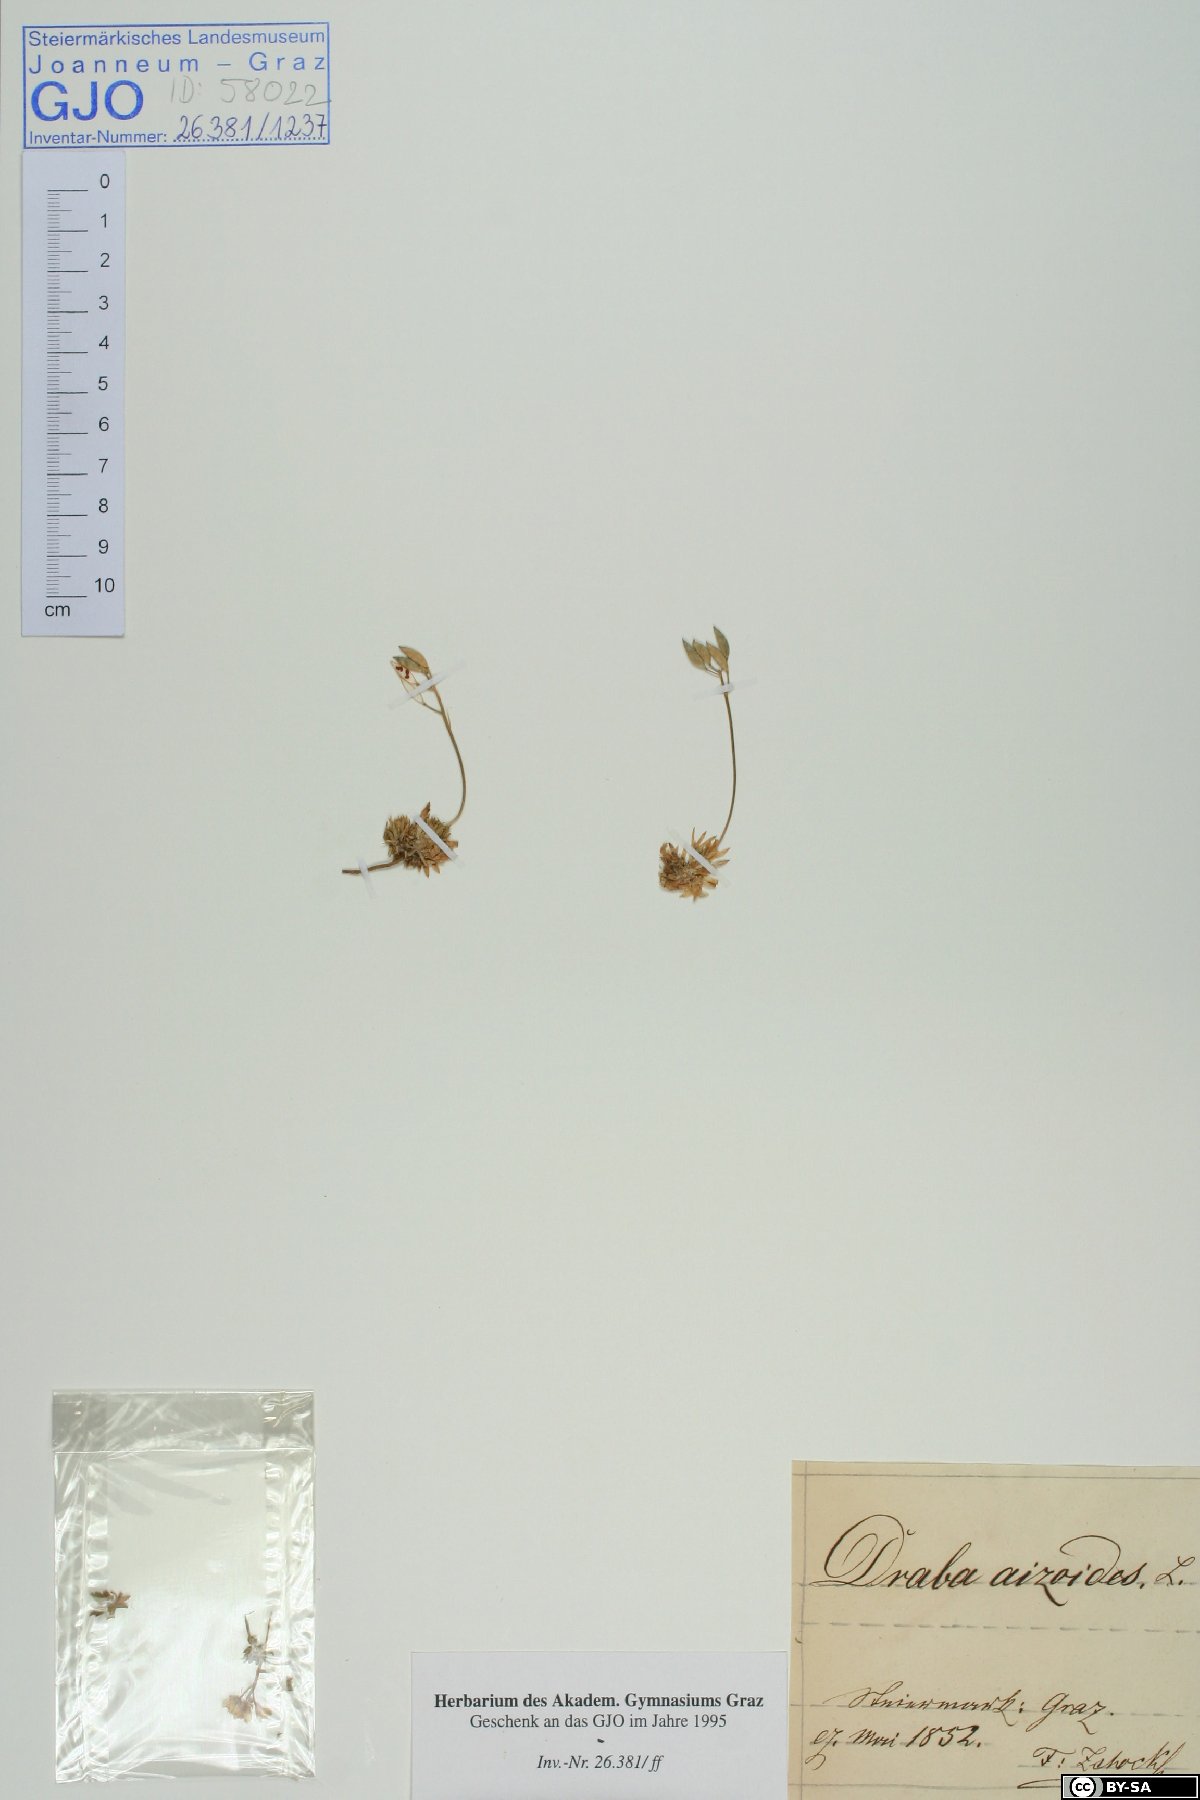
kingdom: Plantae
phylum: Tracheophyta
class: Magnoliopsida
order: Brassicales
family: Brassicaceae
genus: Draba
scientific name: Draba aizoides
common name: Yellow whitlowgrass
